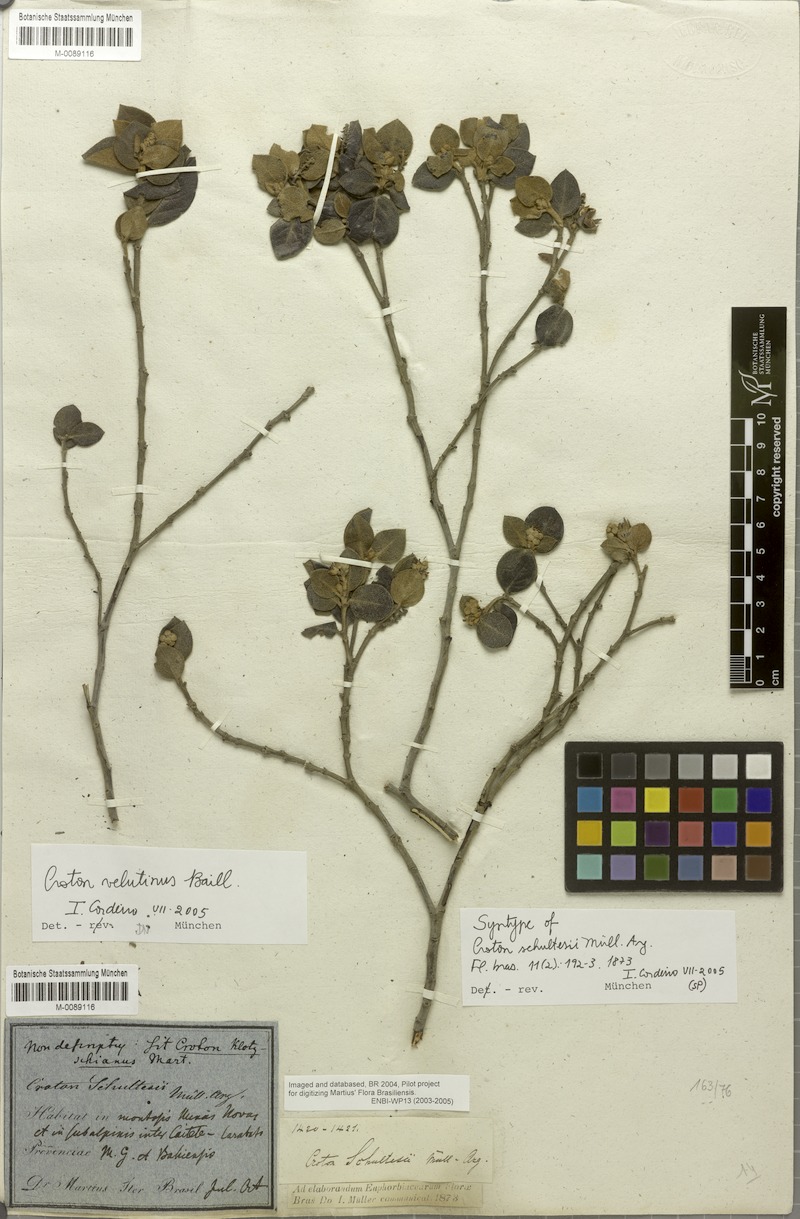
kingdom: Plantae
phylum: Tracheophyta
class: Magnoliopsida
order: Malpighiales
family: Euphorbiaceae
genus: Croton
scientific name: Croton velutinus
